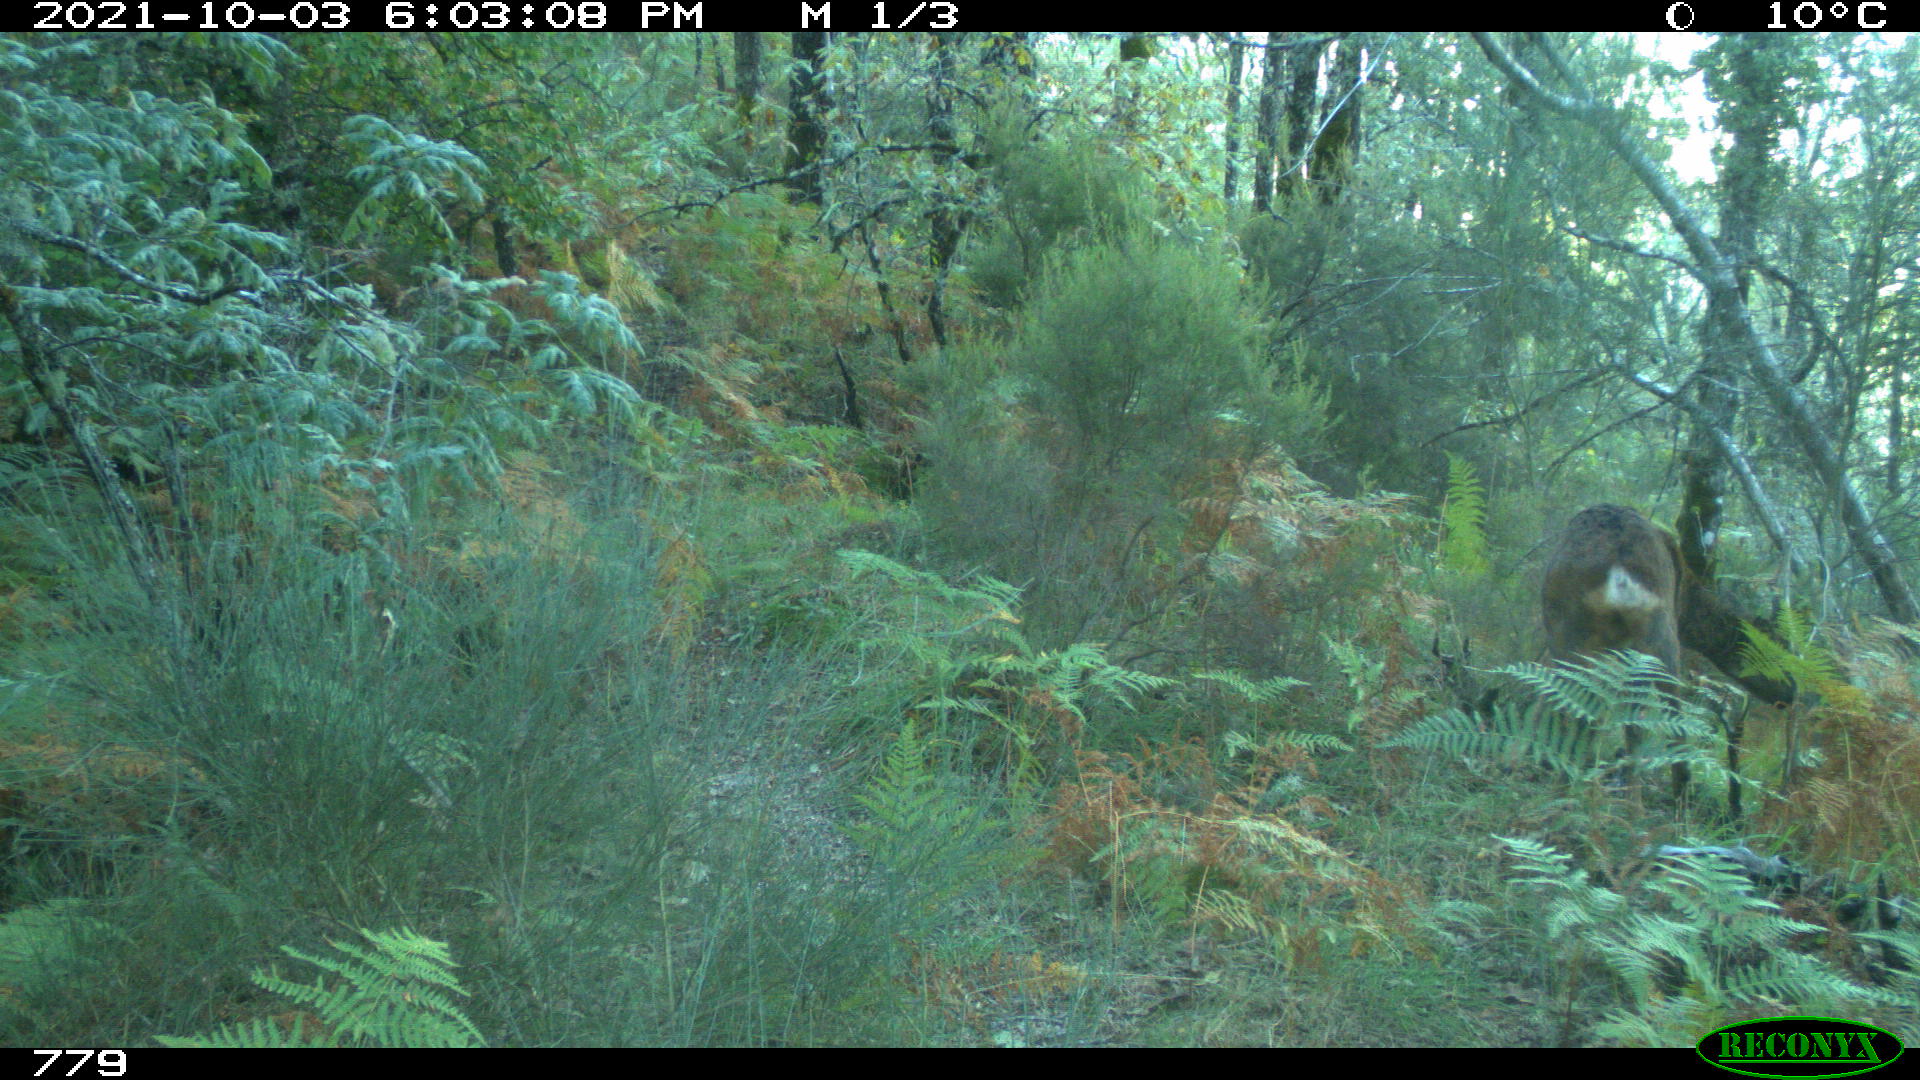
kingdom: Animalia
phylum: Chordata
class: Mammalia
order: Artiodactyla
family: Cervidae
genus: Capreolus
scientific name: Capreolus capreolus
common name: Western roe deer
